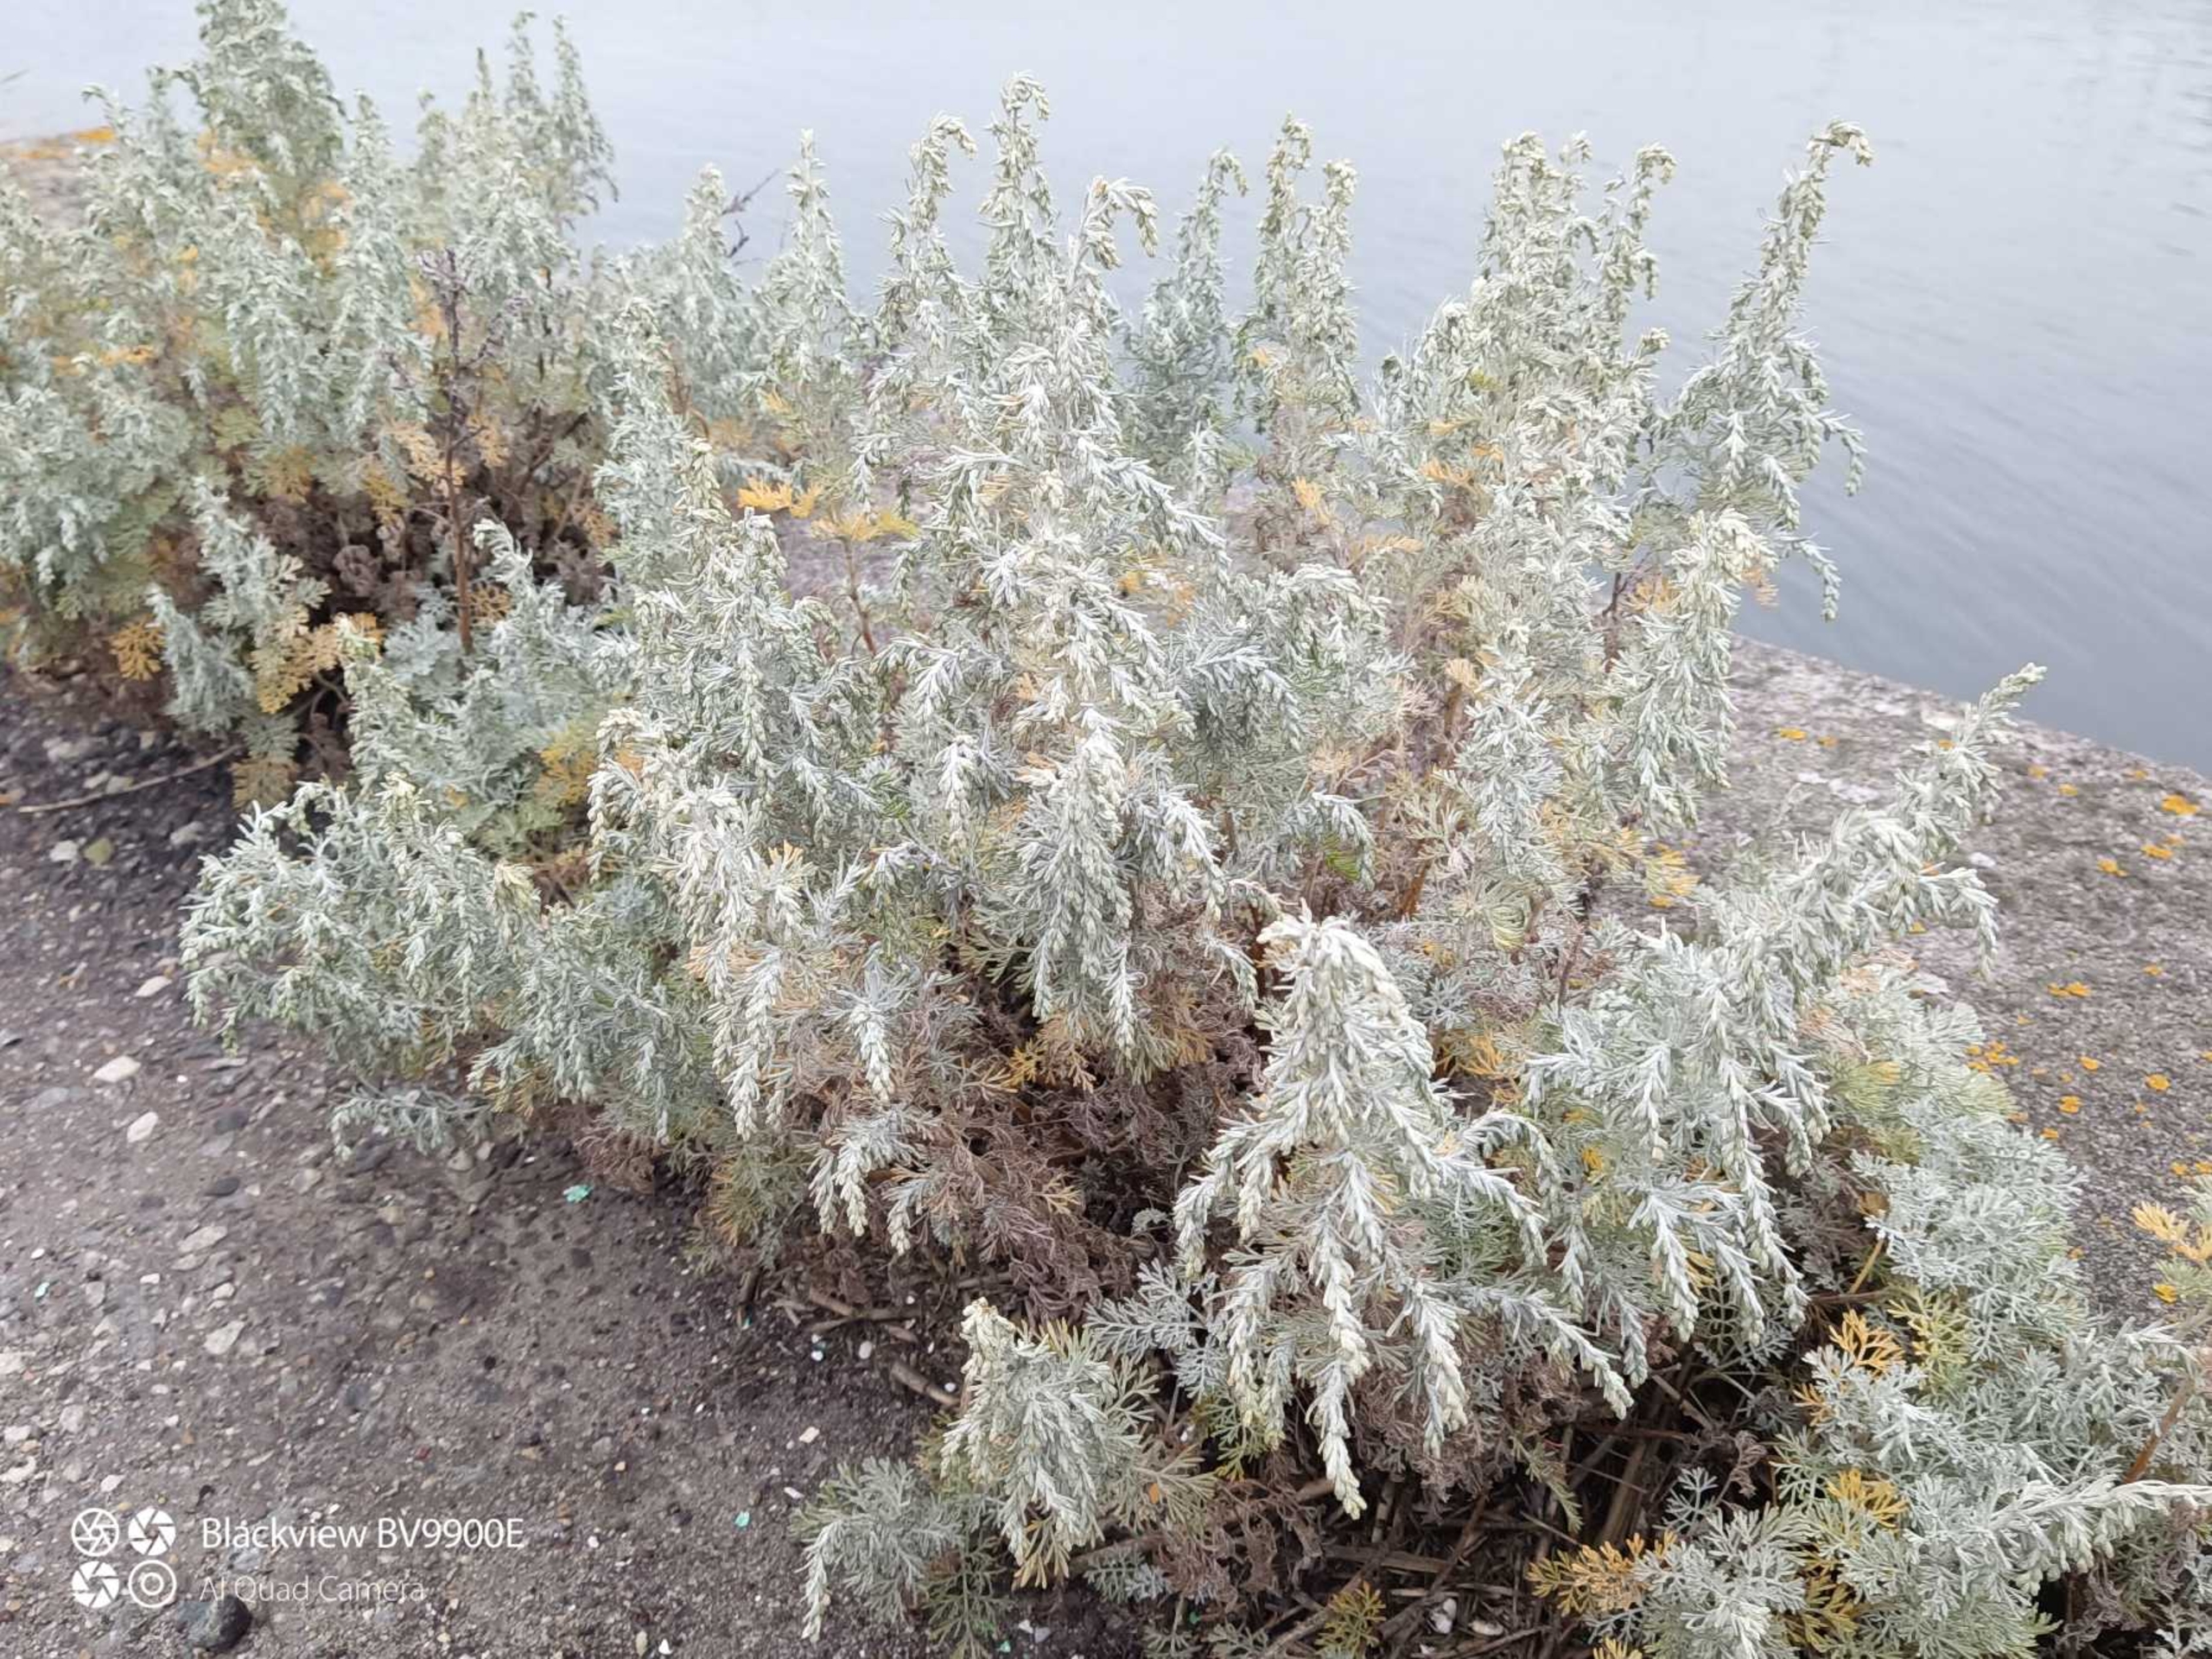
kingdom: Plantae
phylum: Tracheophyta
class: Magnoliopsida
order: Asterales
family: Asteraceae
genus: Artemisia
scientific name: Artemisia maritima
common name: Strandmalurt
